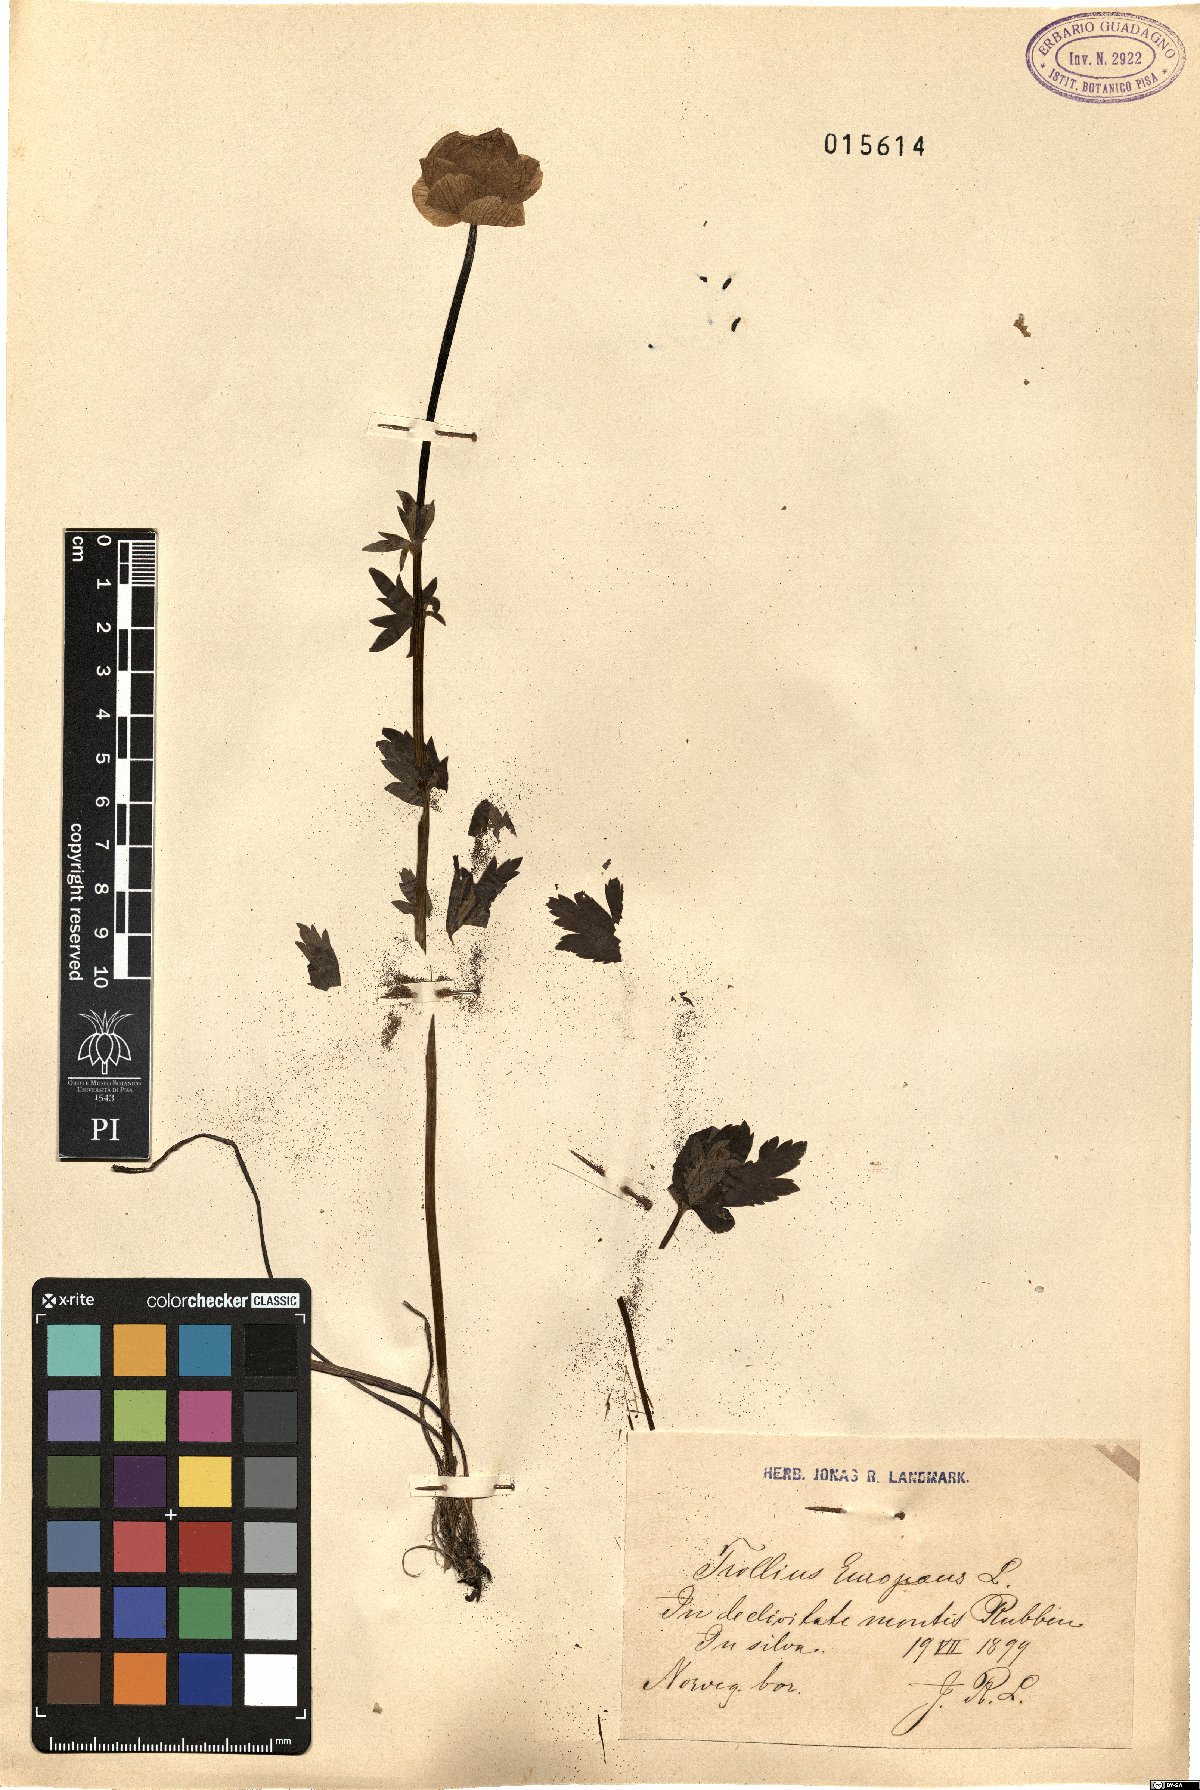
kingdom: Plantae
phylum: Tracheophyta
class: Magnoliopsida
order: Ranunculales
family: Ranunculaceae
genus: Trollius
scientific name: Trollius europaeus
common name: European globeflower
